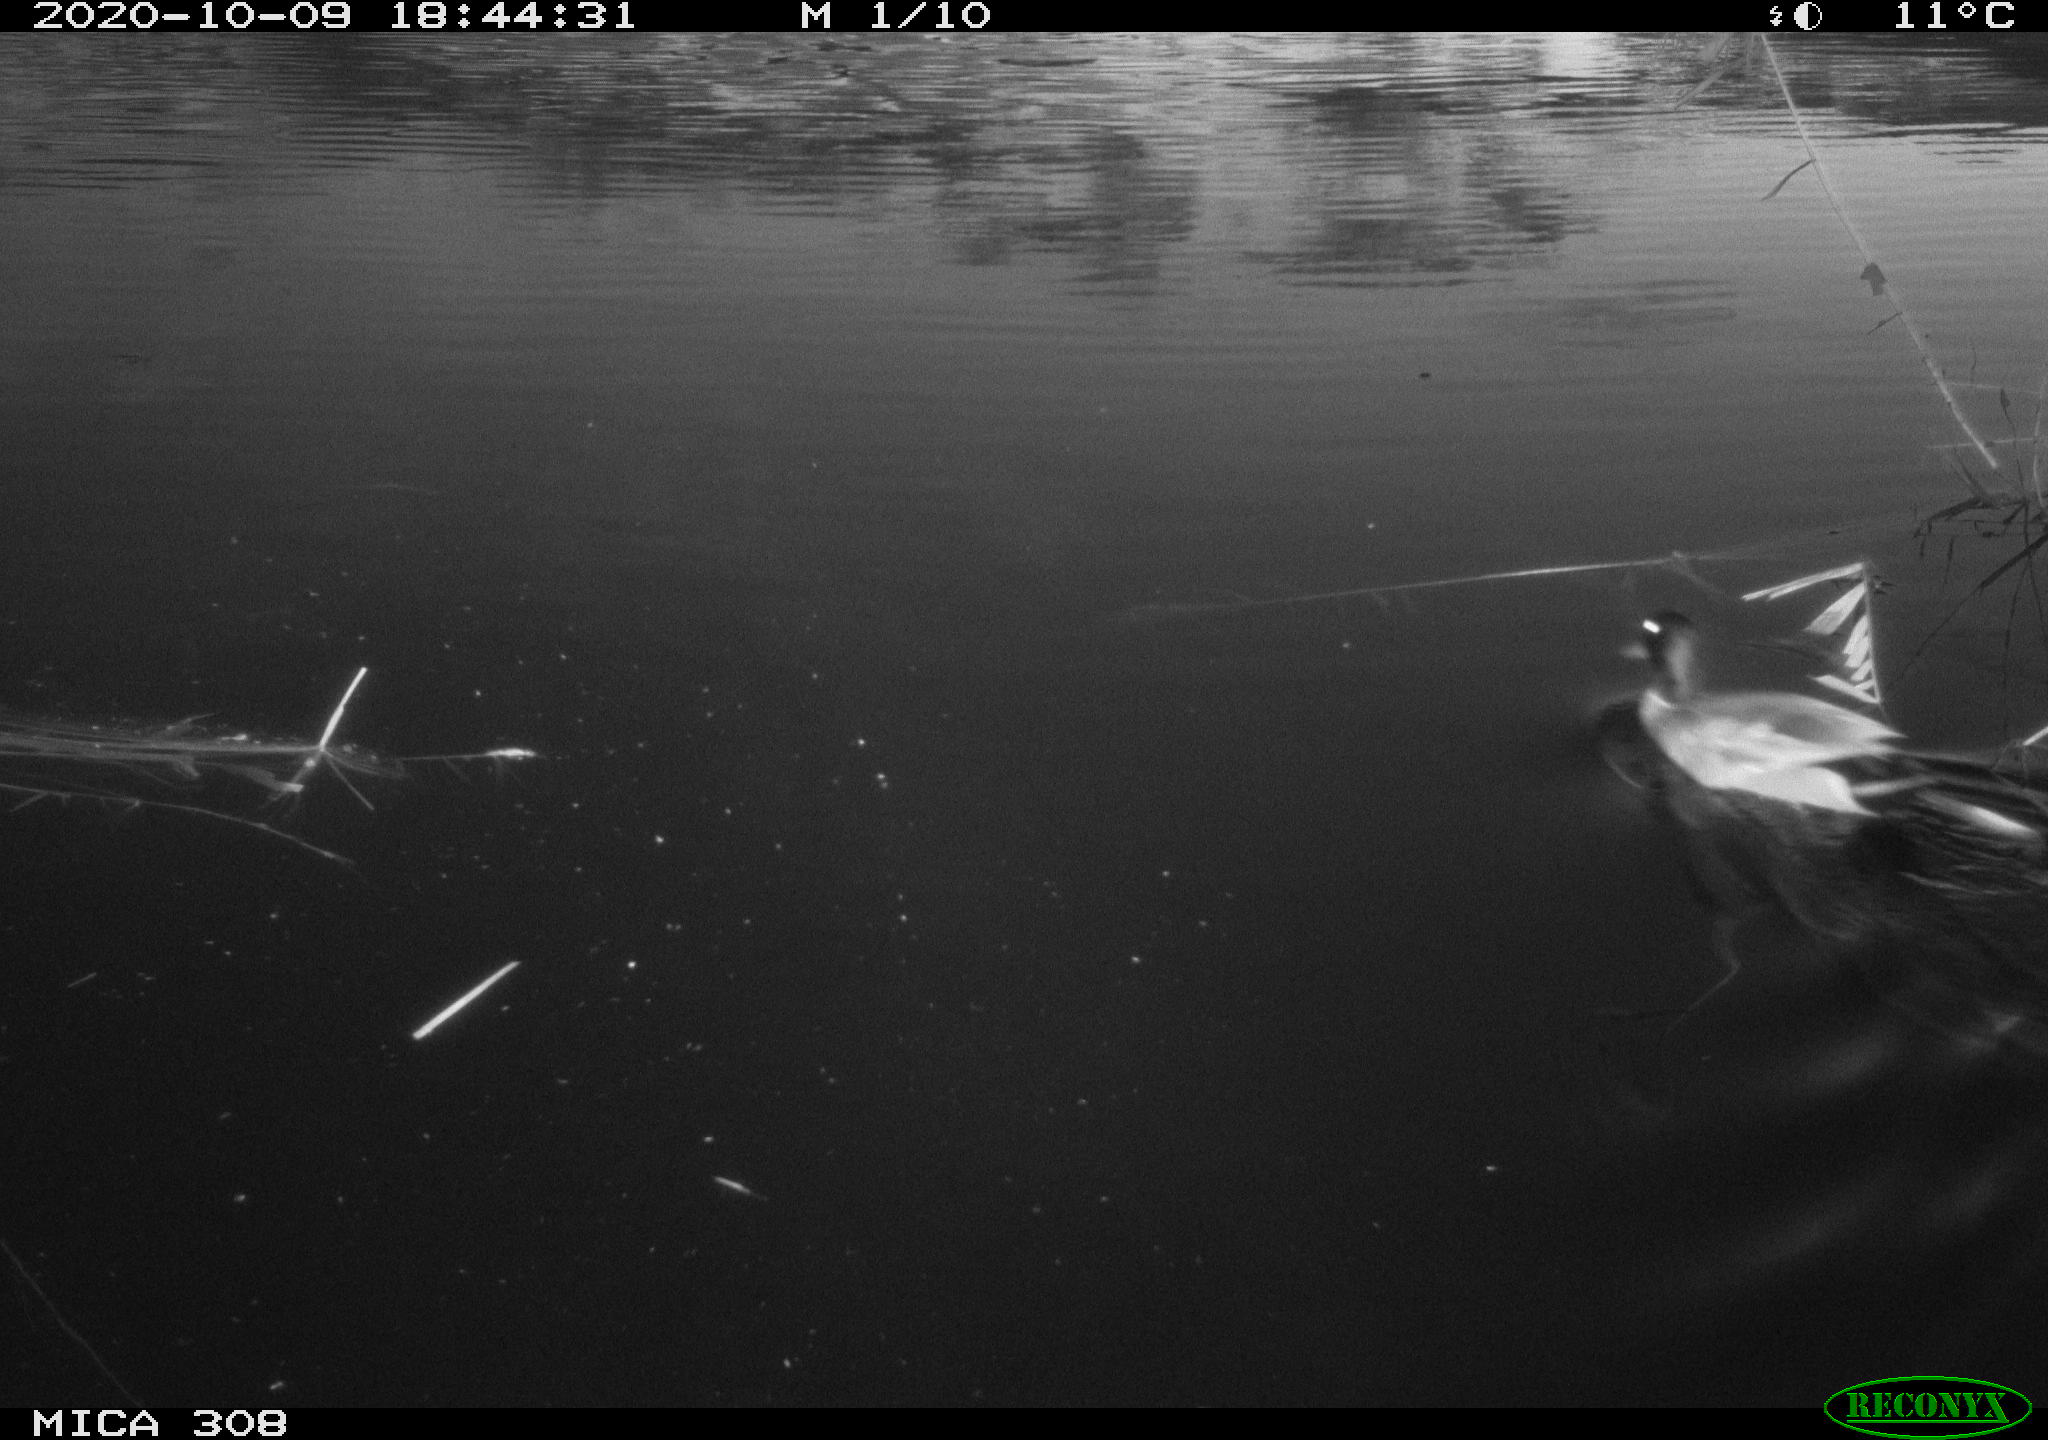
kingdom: Animalia
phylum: Chordata
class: Aves
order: Anseriformes
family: Anatidae
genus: Anas
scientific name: Anas platyrhynchos
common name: Mallard
